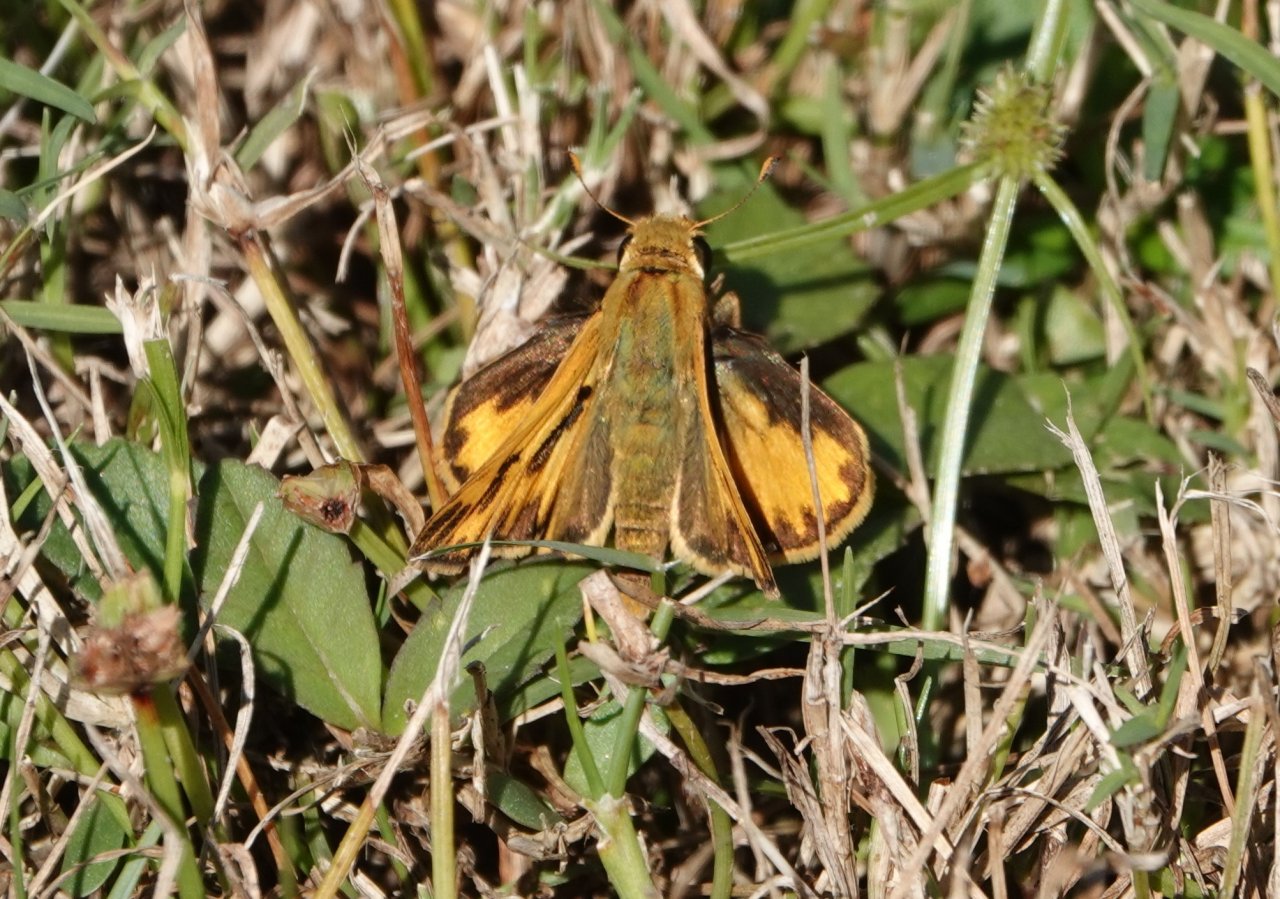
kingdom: Animalia
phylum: Arthropoda
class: Insecta
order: Lepidoptera
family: Hesperiidae
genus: Hylephila
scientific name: Hylephila phyleus
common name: Fiery Skipper
